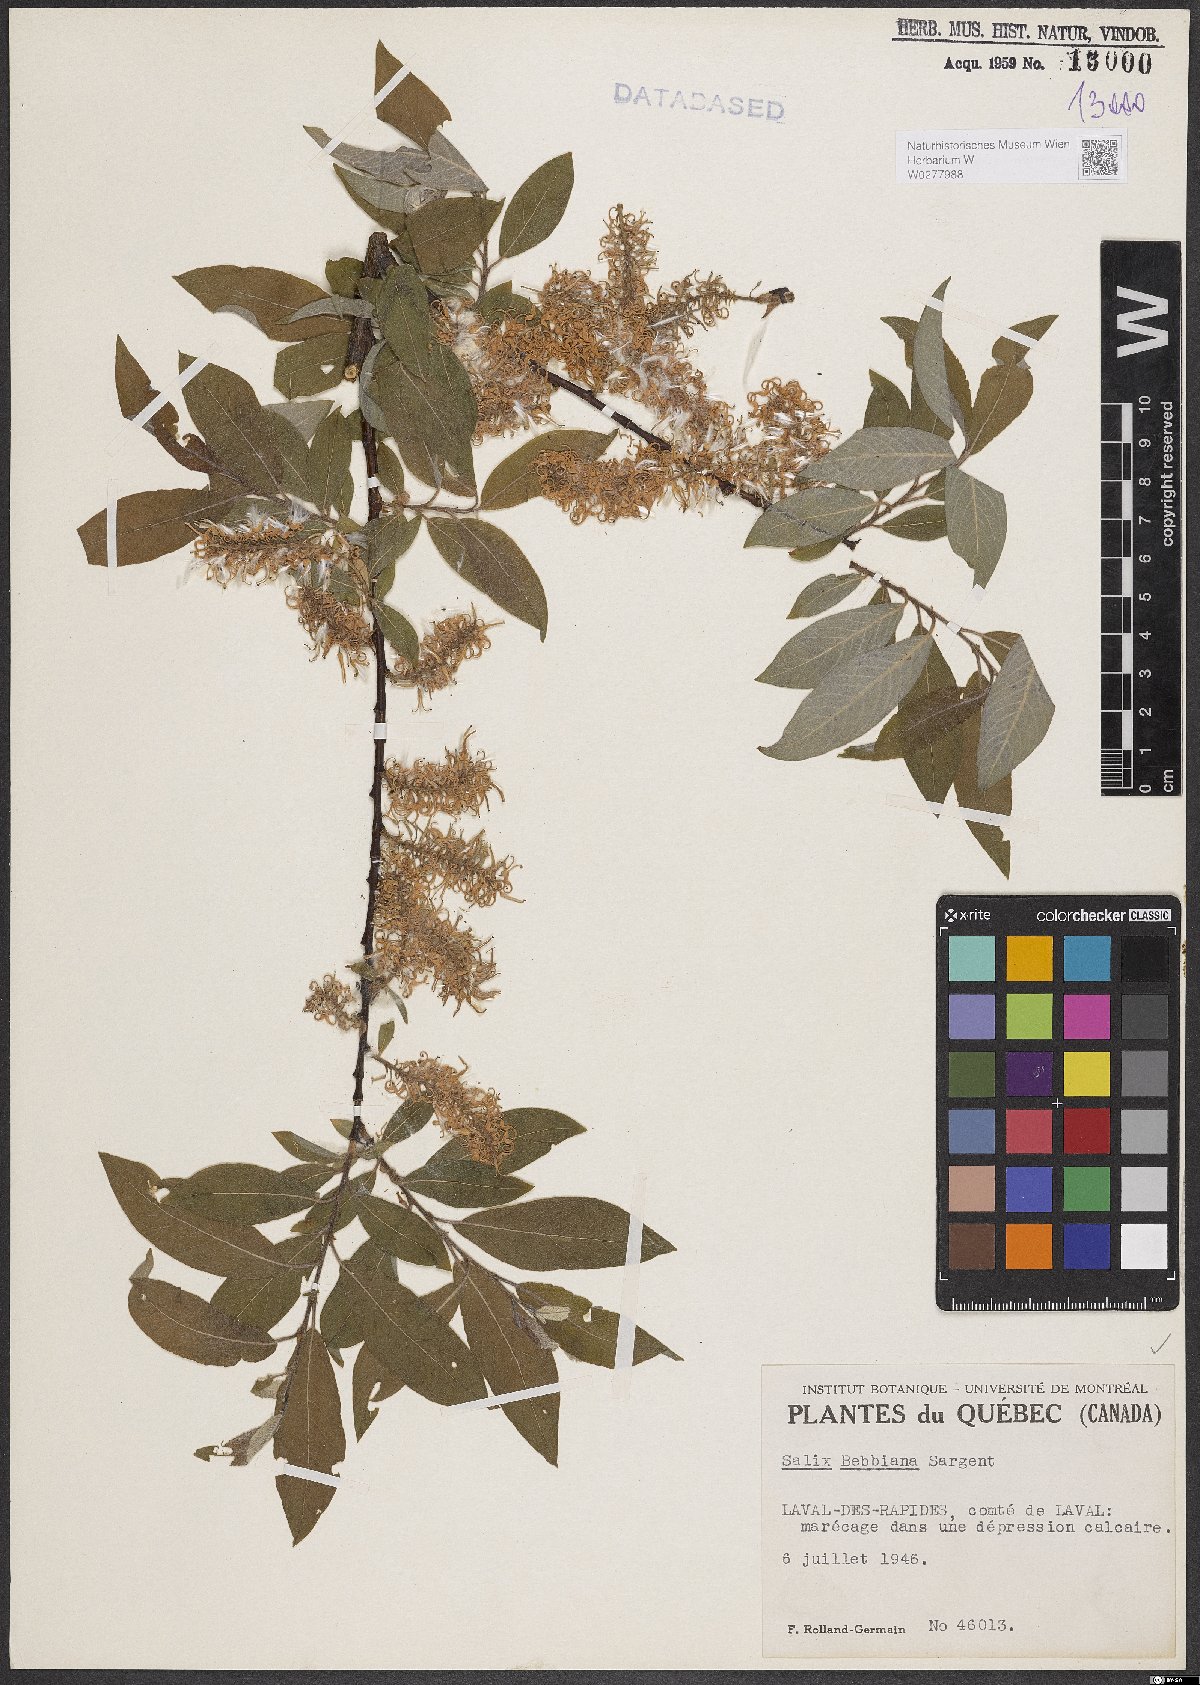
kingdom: Plantae
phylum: Tracheophyta
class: Magnoliopsida
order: Malpighiales
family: Salicaceae
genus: Salix
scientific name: Salix bebbiana
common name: Bebb's willow
